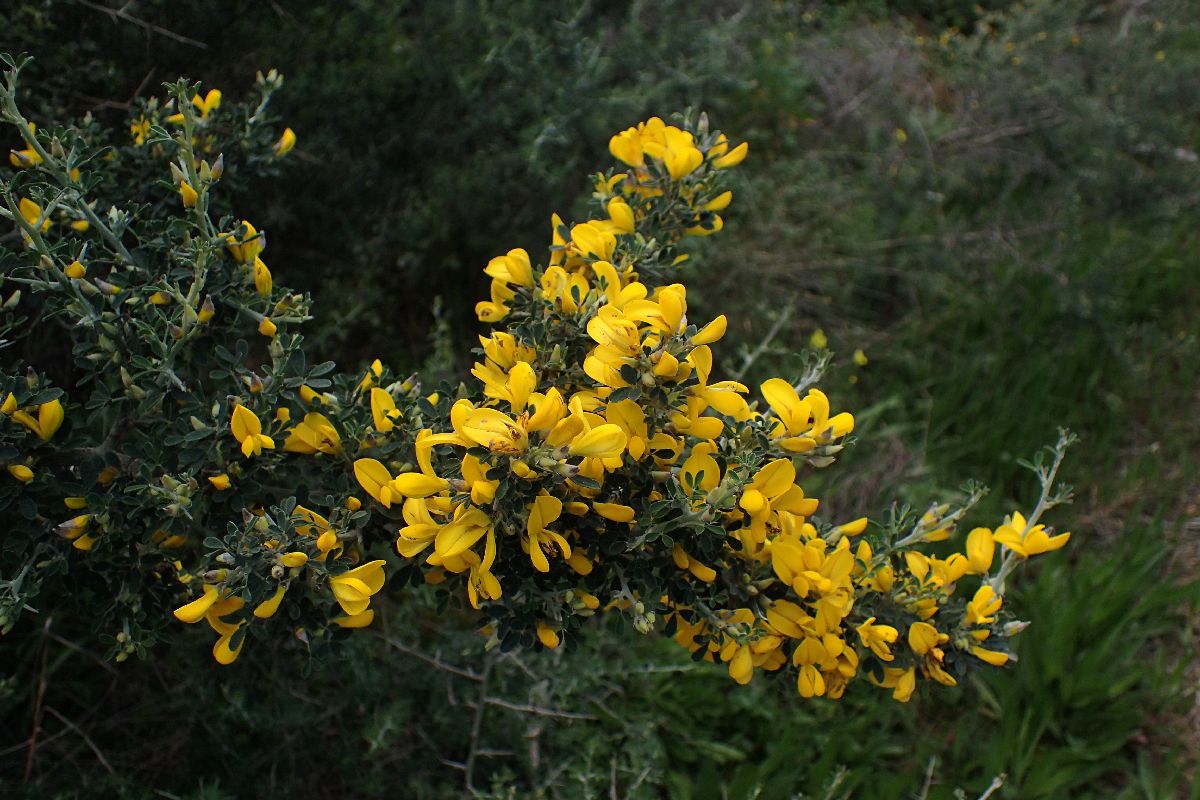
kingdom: Plantae
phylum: Tracheophyta
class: Magnoliopsida
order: Fabales
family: Fabaceae
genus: Calicotome
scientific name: Calicotome villosa
